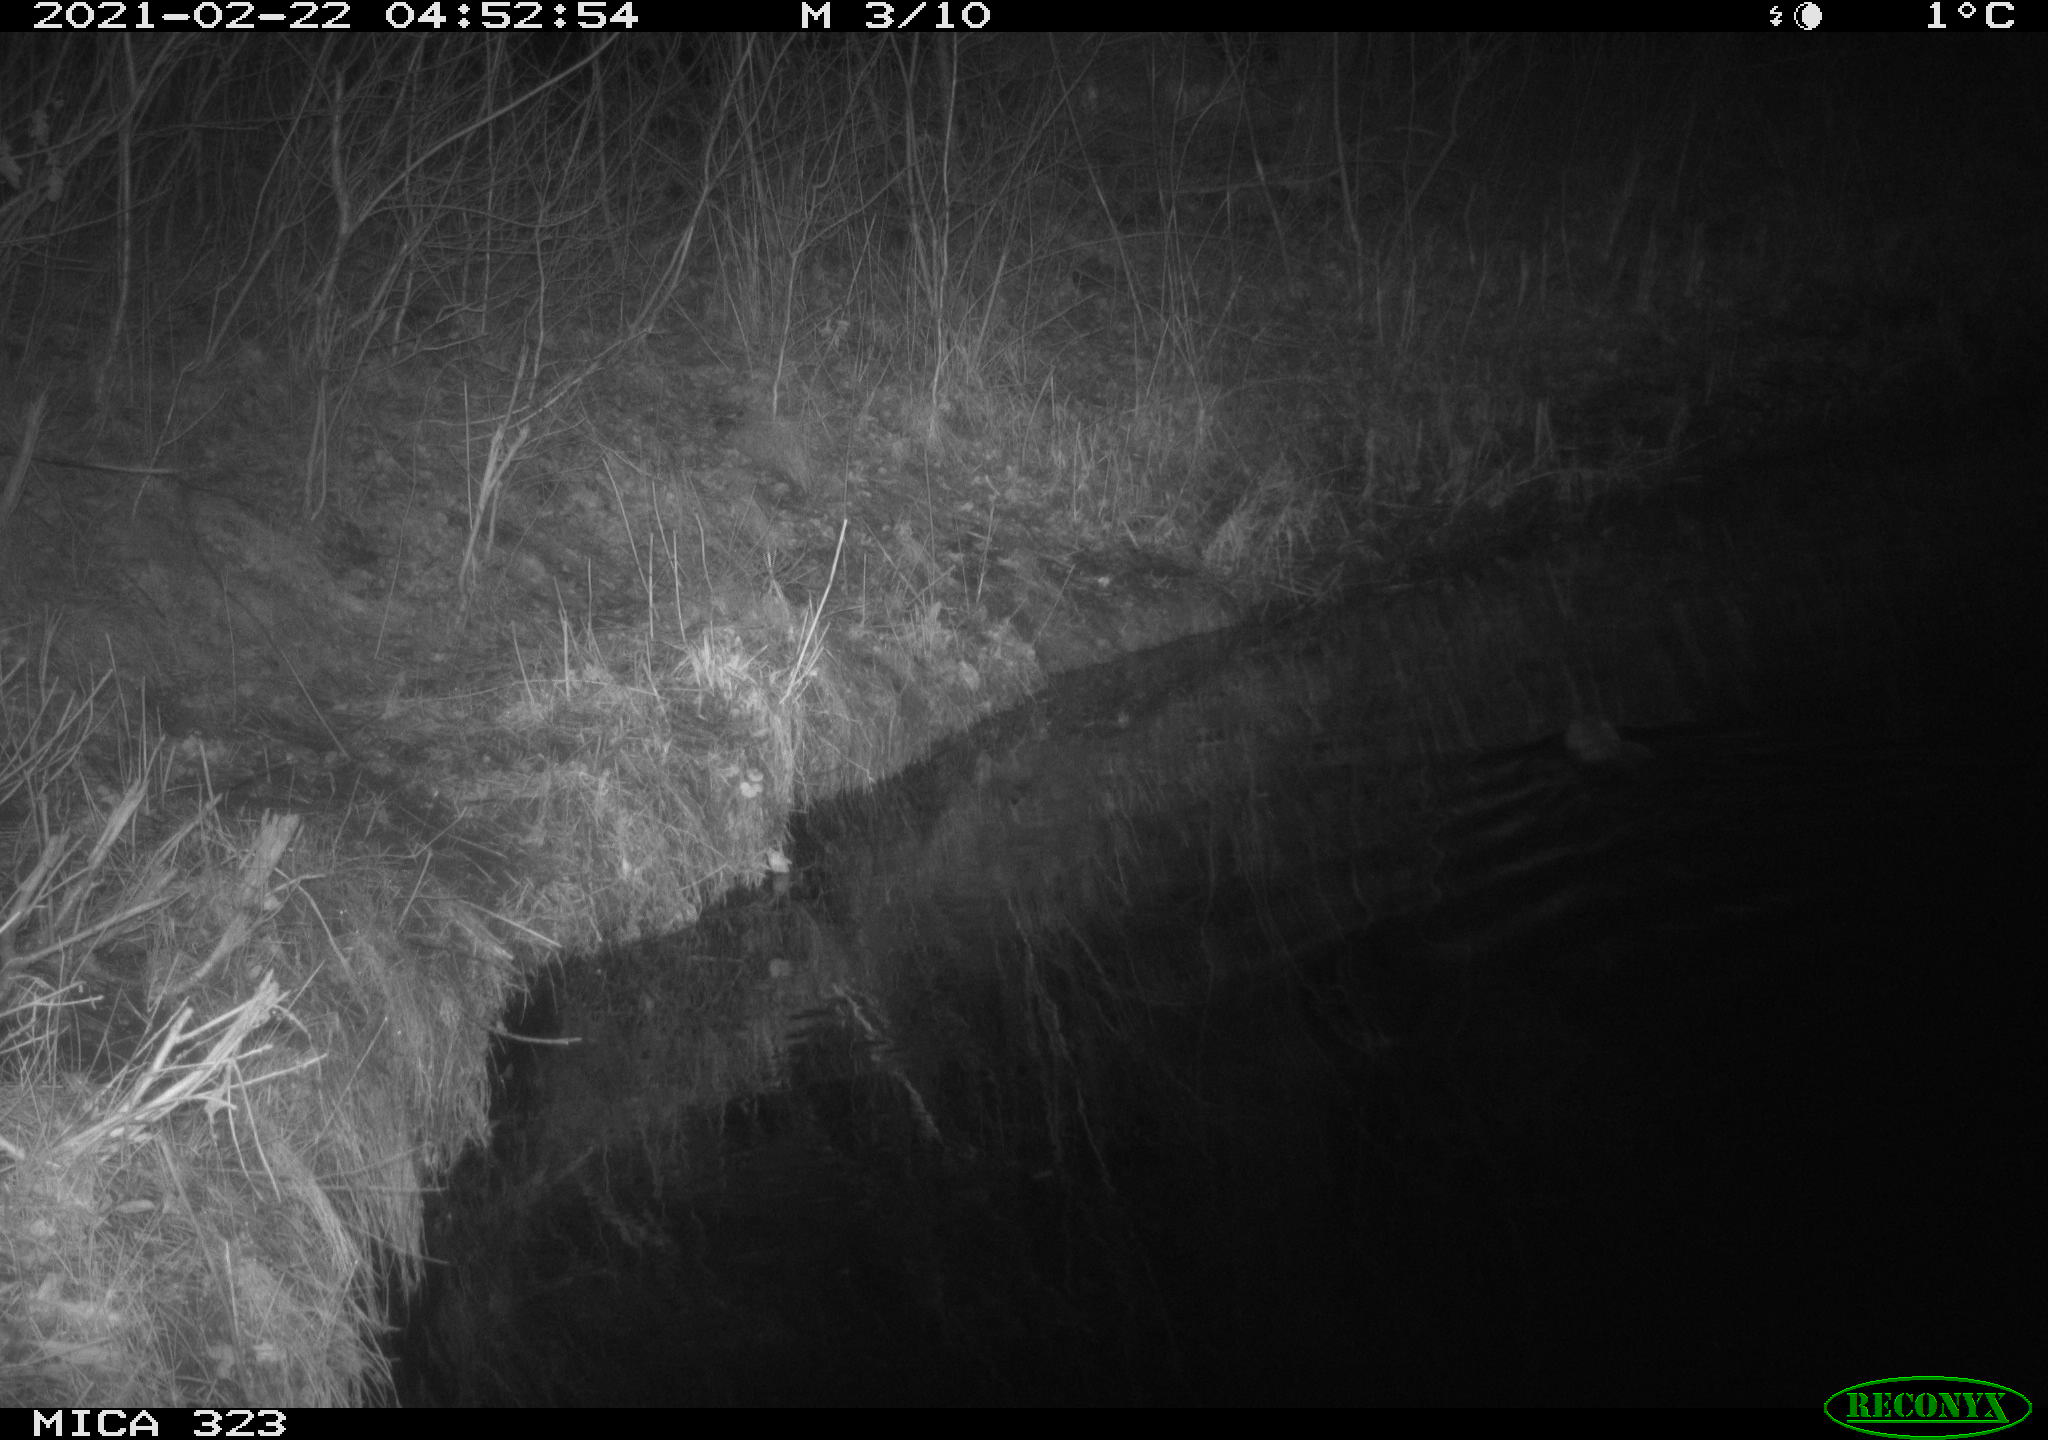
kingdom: Animalia
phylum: Chordata
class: Mammalia
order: Rodentia
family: Myocastoridae
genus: Myocastor
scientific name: Myocastor coypus
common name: Coypu
